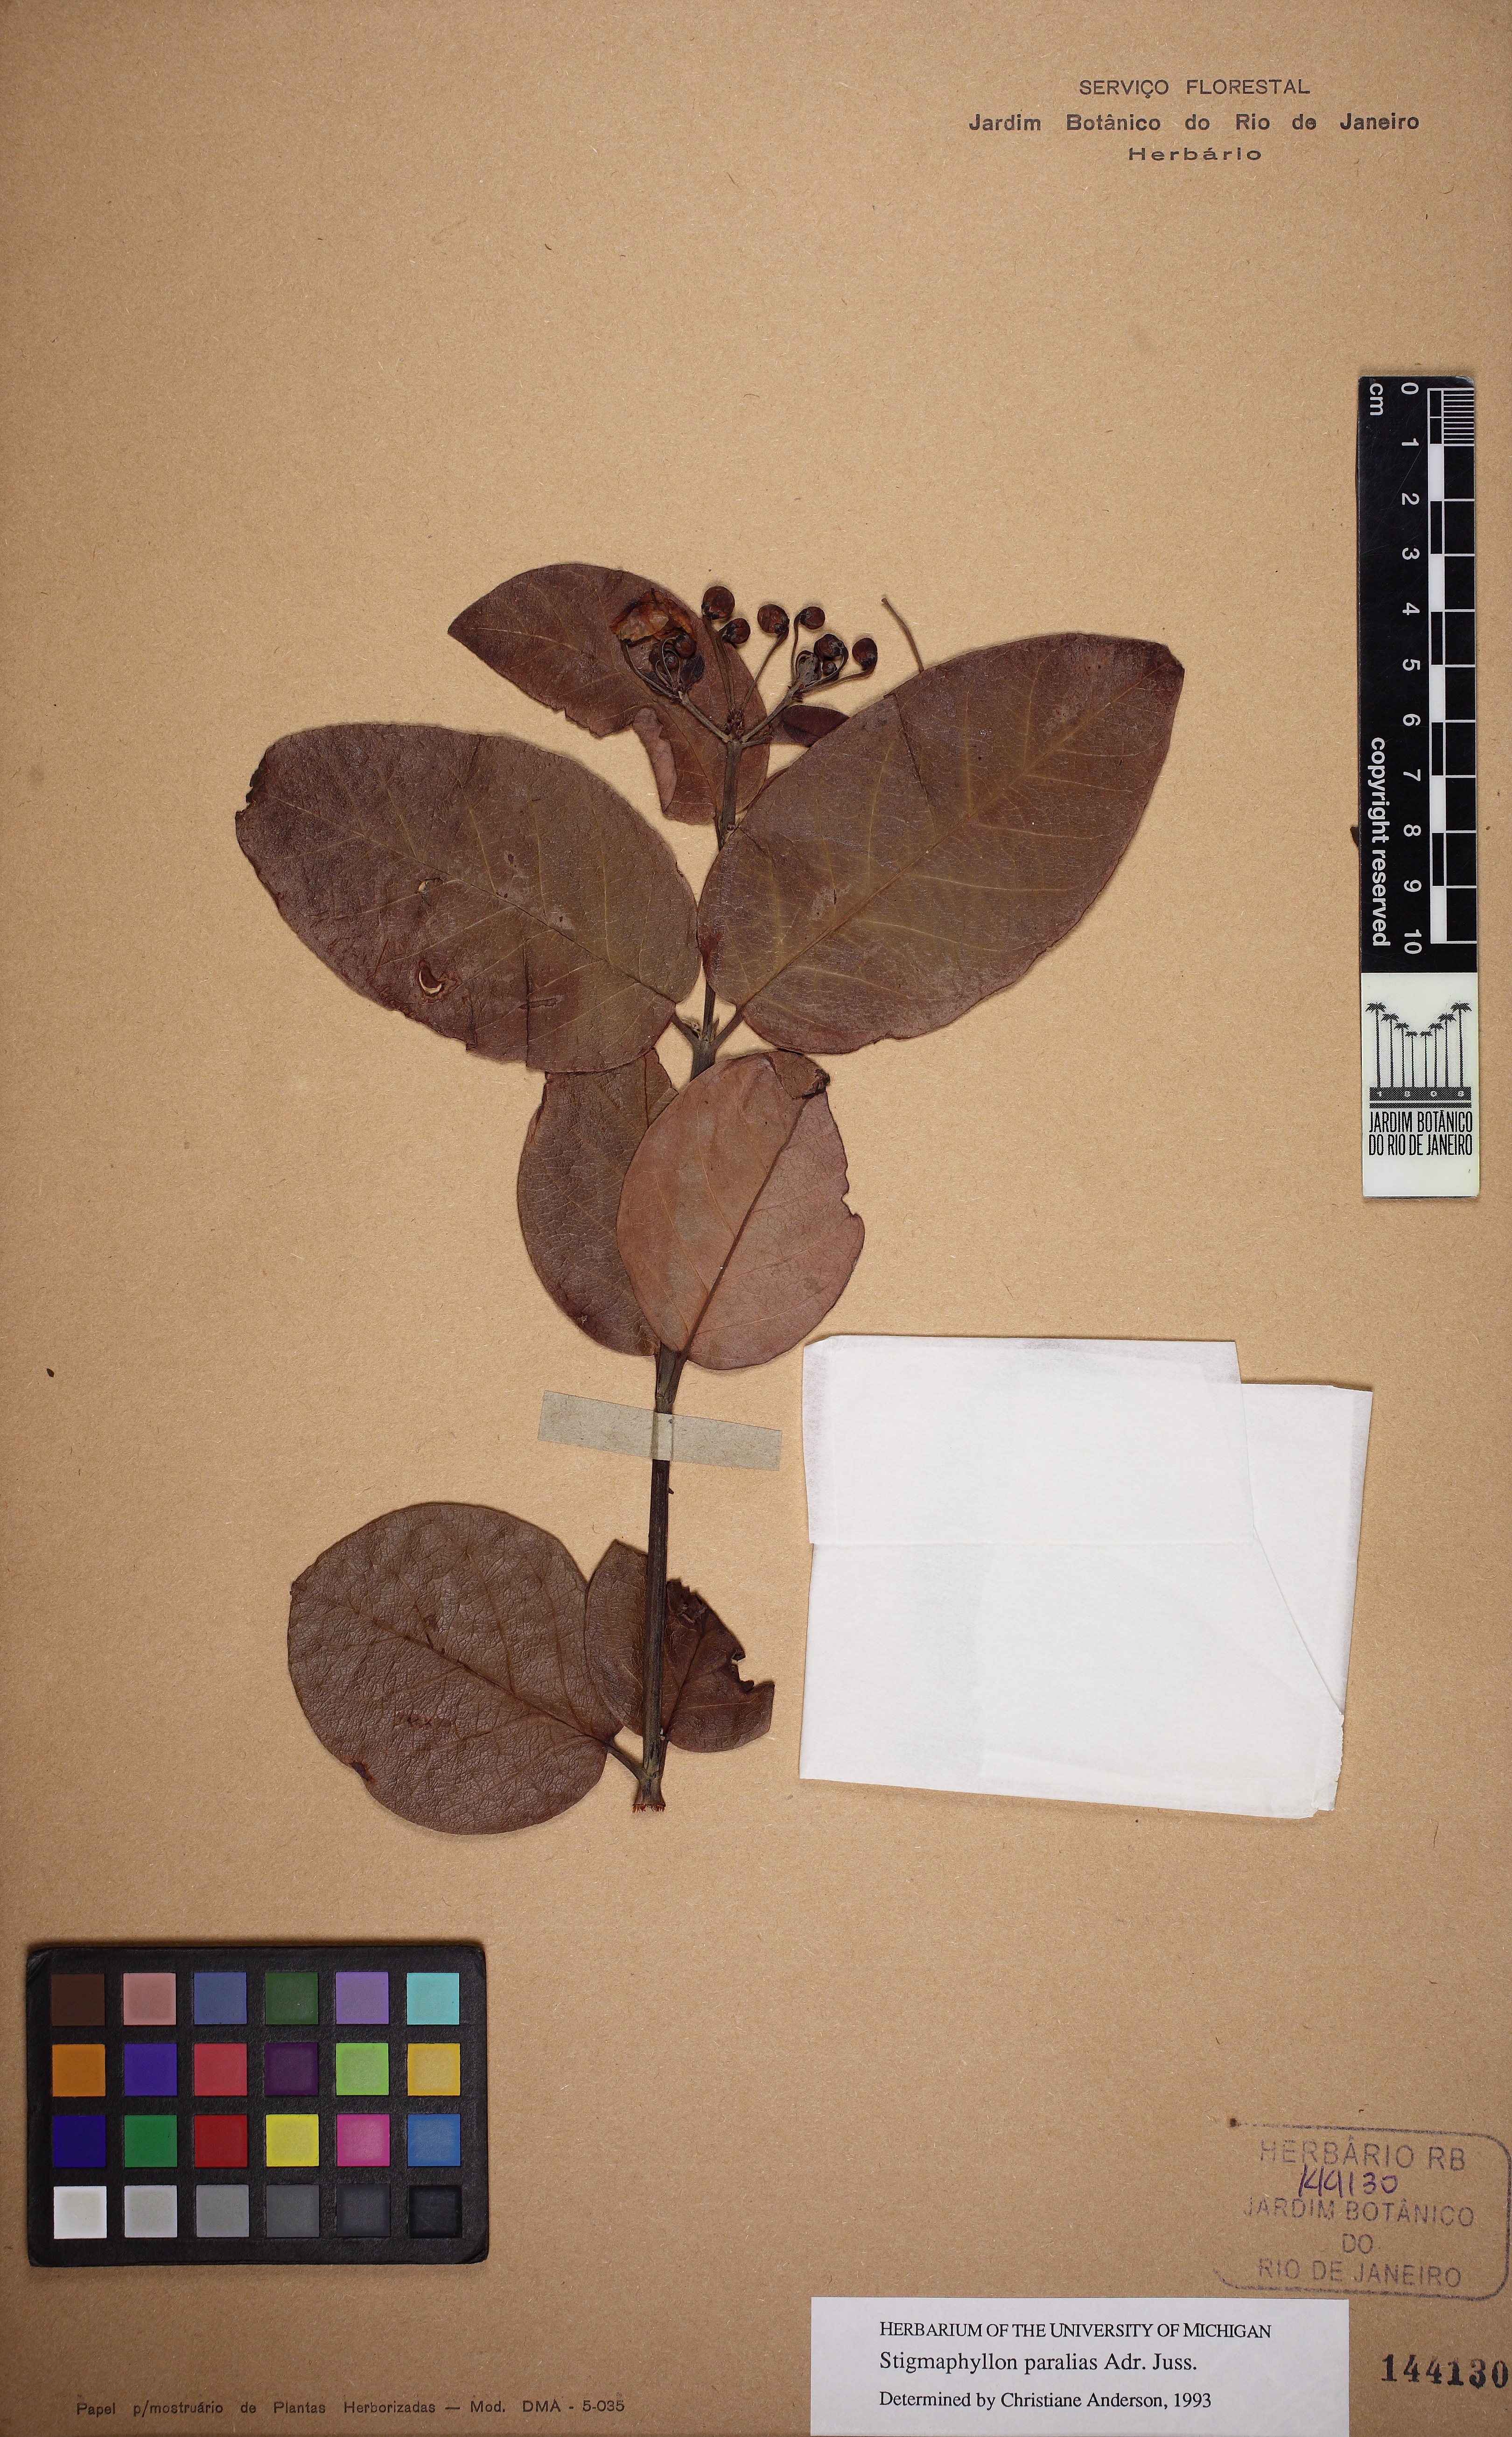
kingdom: Plantae
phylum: Tracheophyta
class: Magnoliopsida
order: Malpighiales
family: Malpighiaceae
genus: Stigmaphyllon
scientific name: Stigmaphyllon paralias
